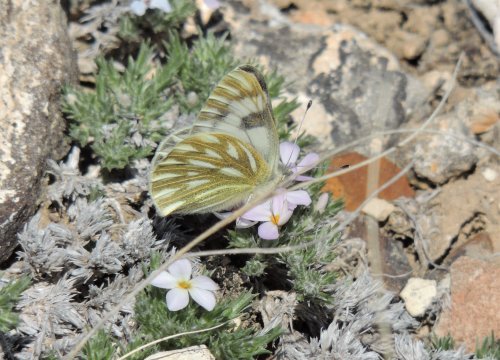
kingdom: Animalia
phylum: Arthropoda
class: Insecta
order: Lepidoptera
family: Pieridae
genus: Pontia
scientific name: Pontia occidentalis
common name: Western White
